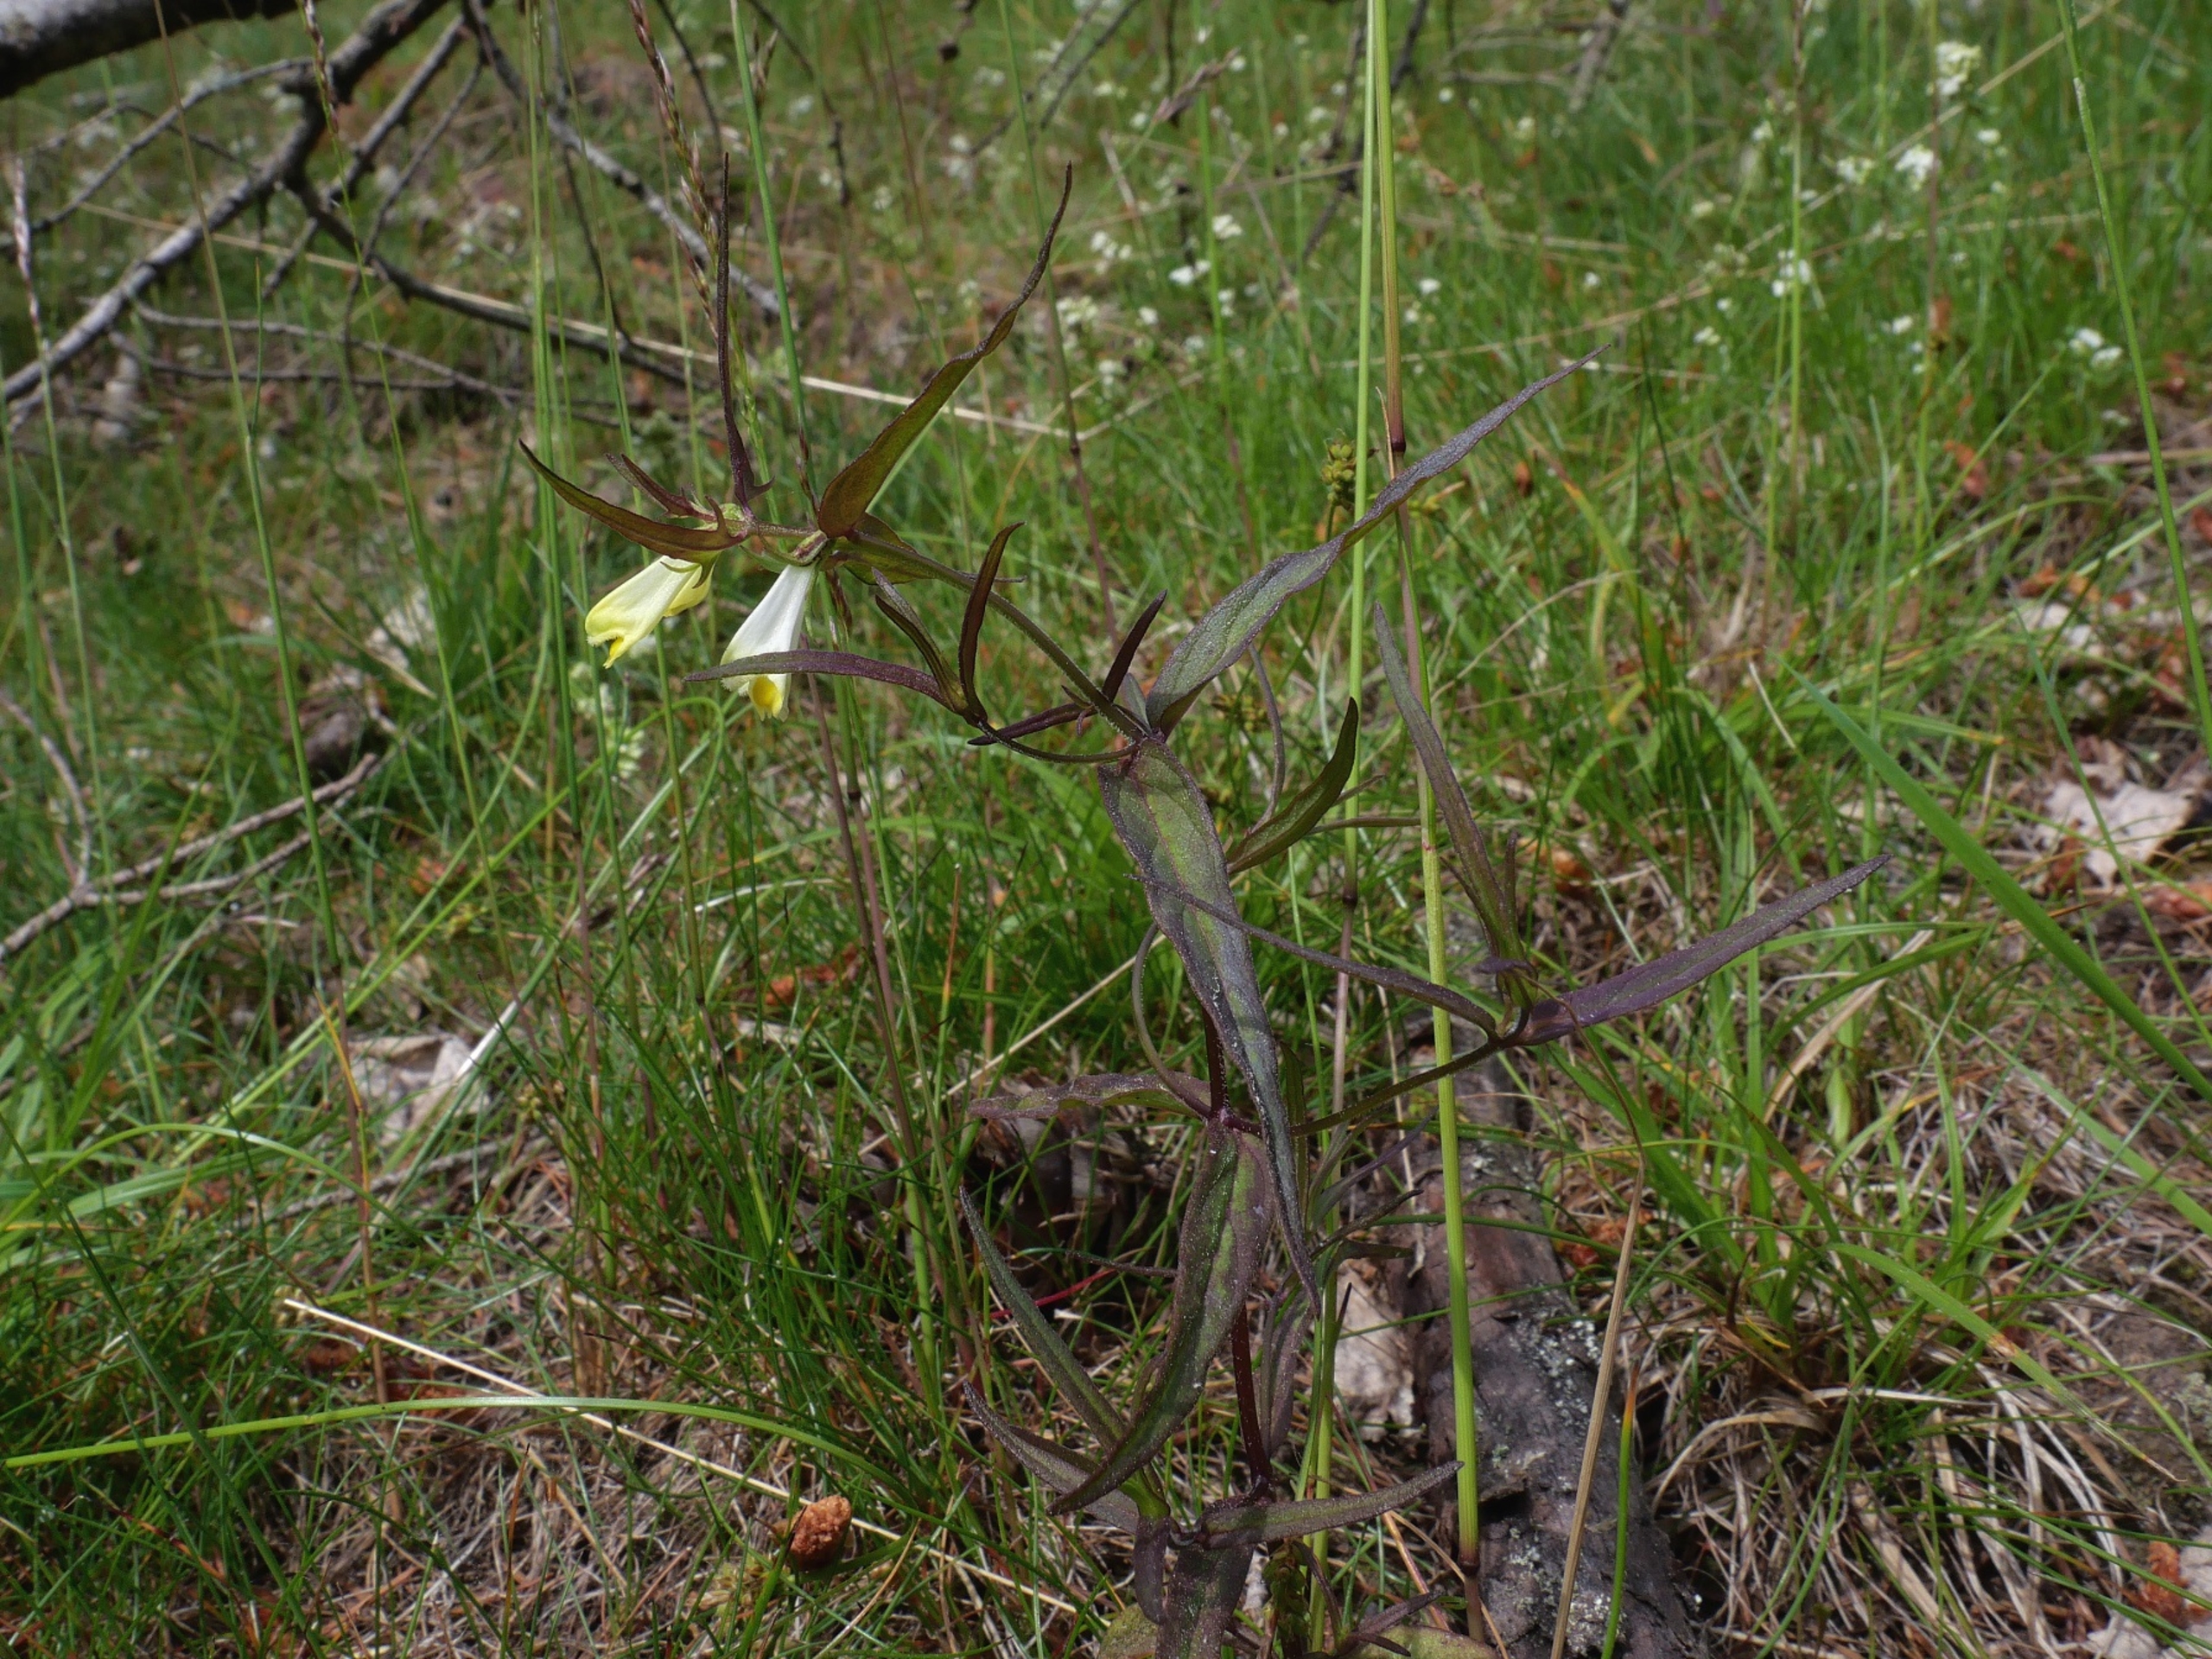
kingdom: Plantae
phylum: Tracheophyta
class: Magnoliopsida
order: Lamiales
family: Orobanchaceae
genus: Melampyrum
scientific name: Melampyrum pratense
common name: Almindelig kohvede
